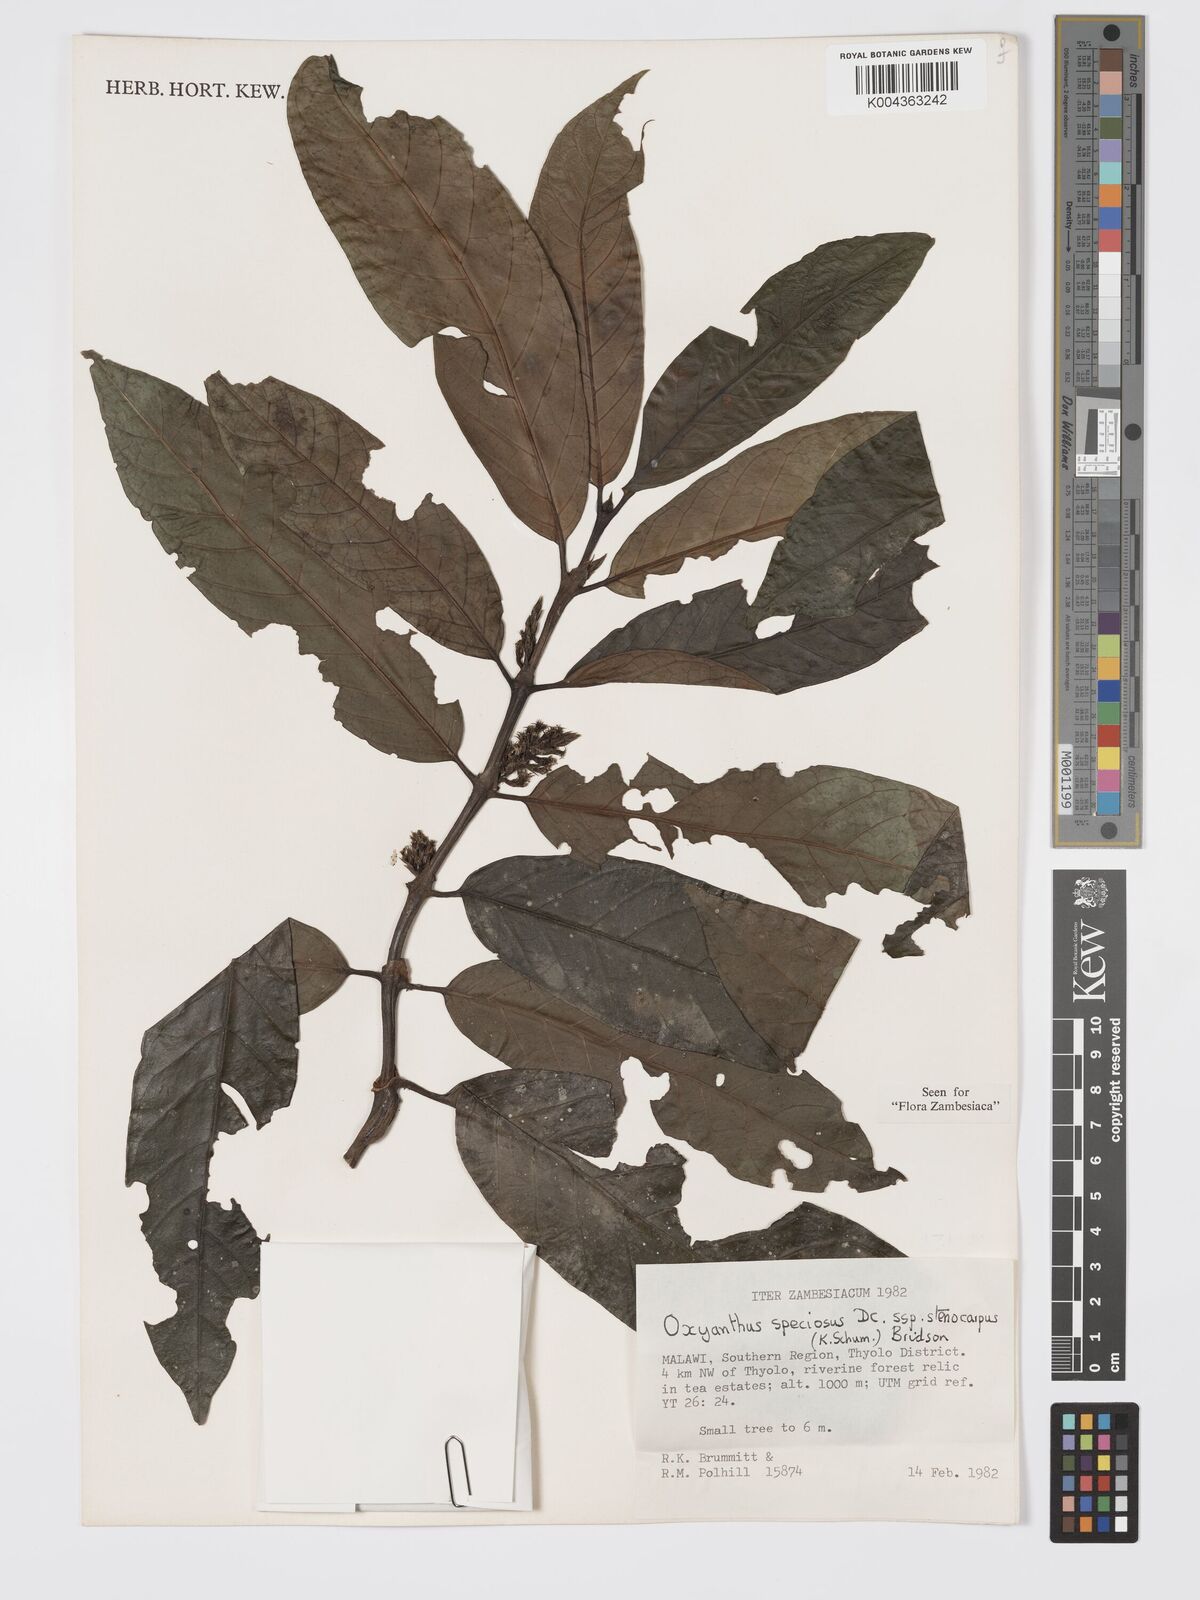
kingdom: Plantae
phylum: Tracheophyta
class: Magnoliopsida
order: Gentianales
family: Rubiaceae
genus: Oxyanthus
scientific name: Oxyanthus speciosus
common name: Whipstick loquat
